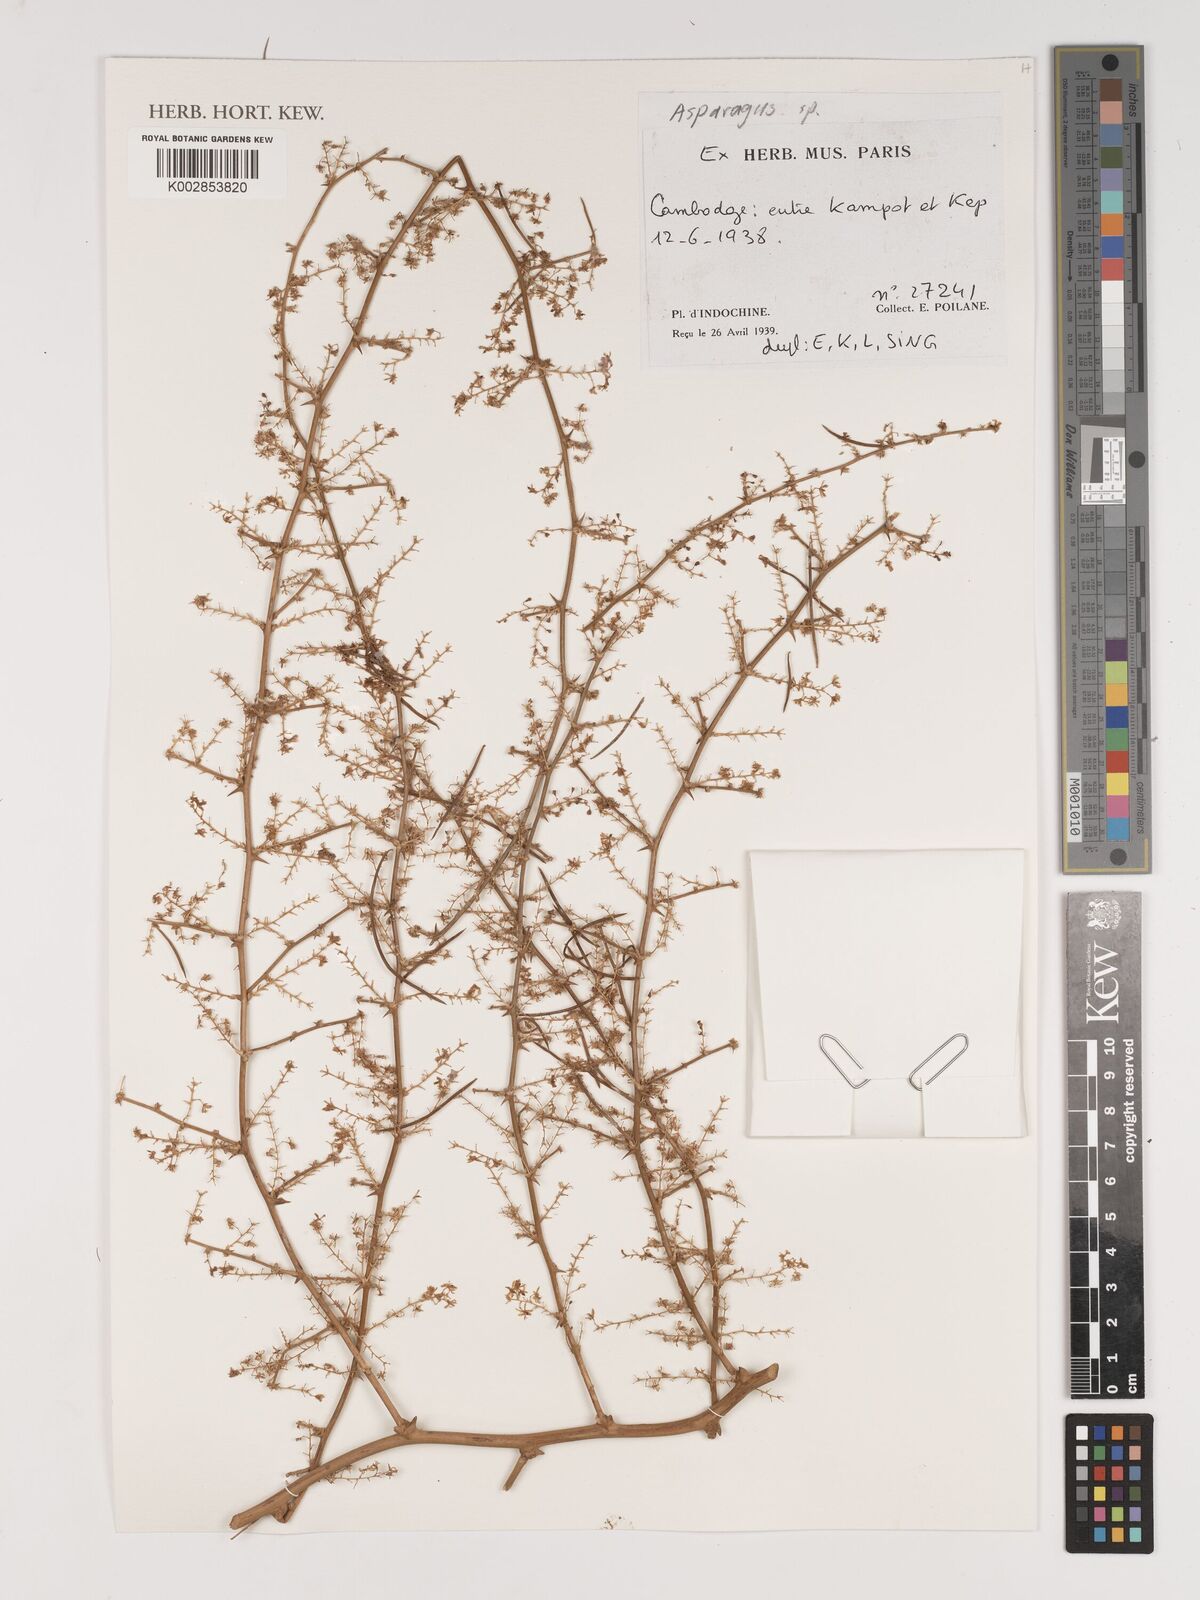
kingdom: Plantae
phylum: Tracheophyta
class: Liliopsida
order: Asparagales
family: Asparagaceae
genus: Asparagus
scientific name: Asparagus
